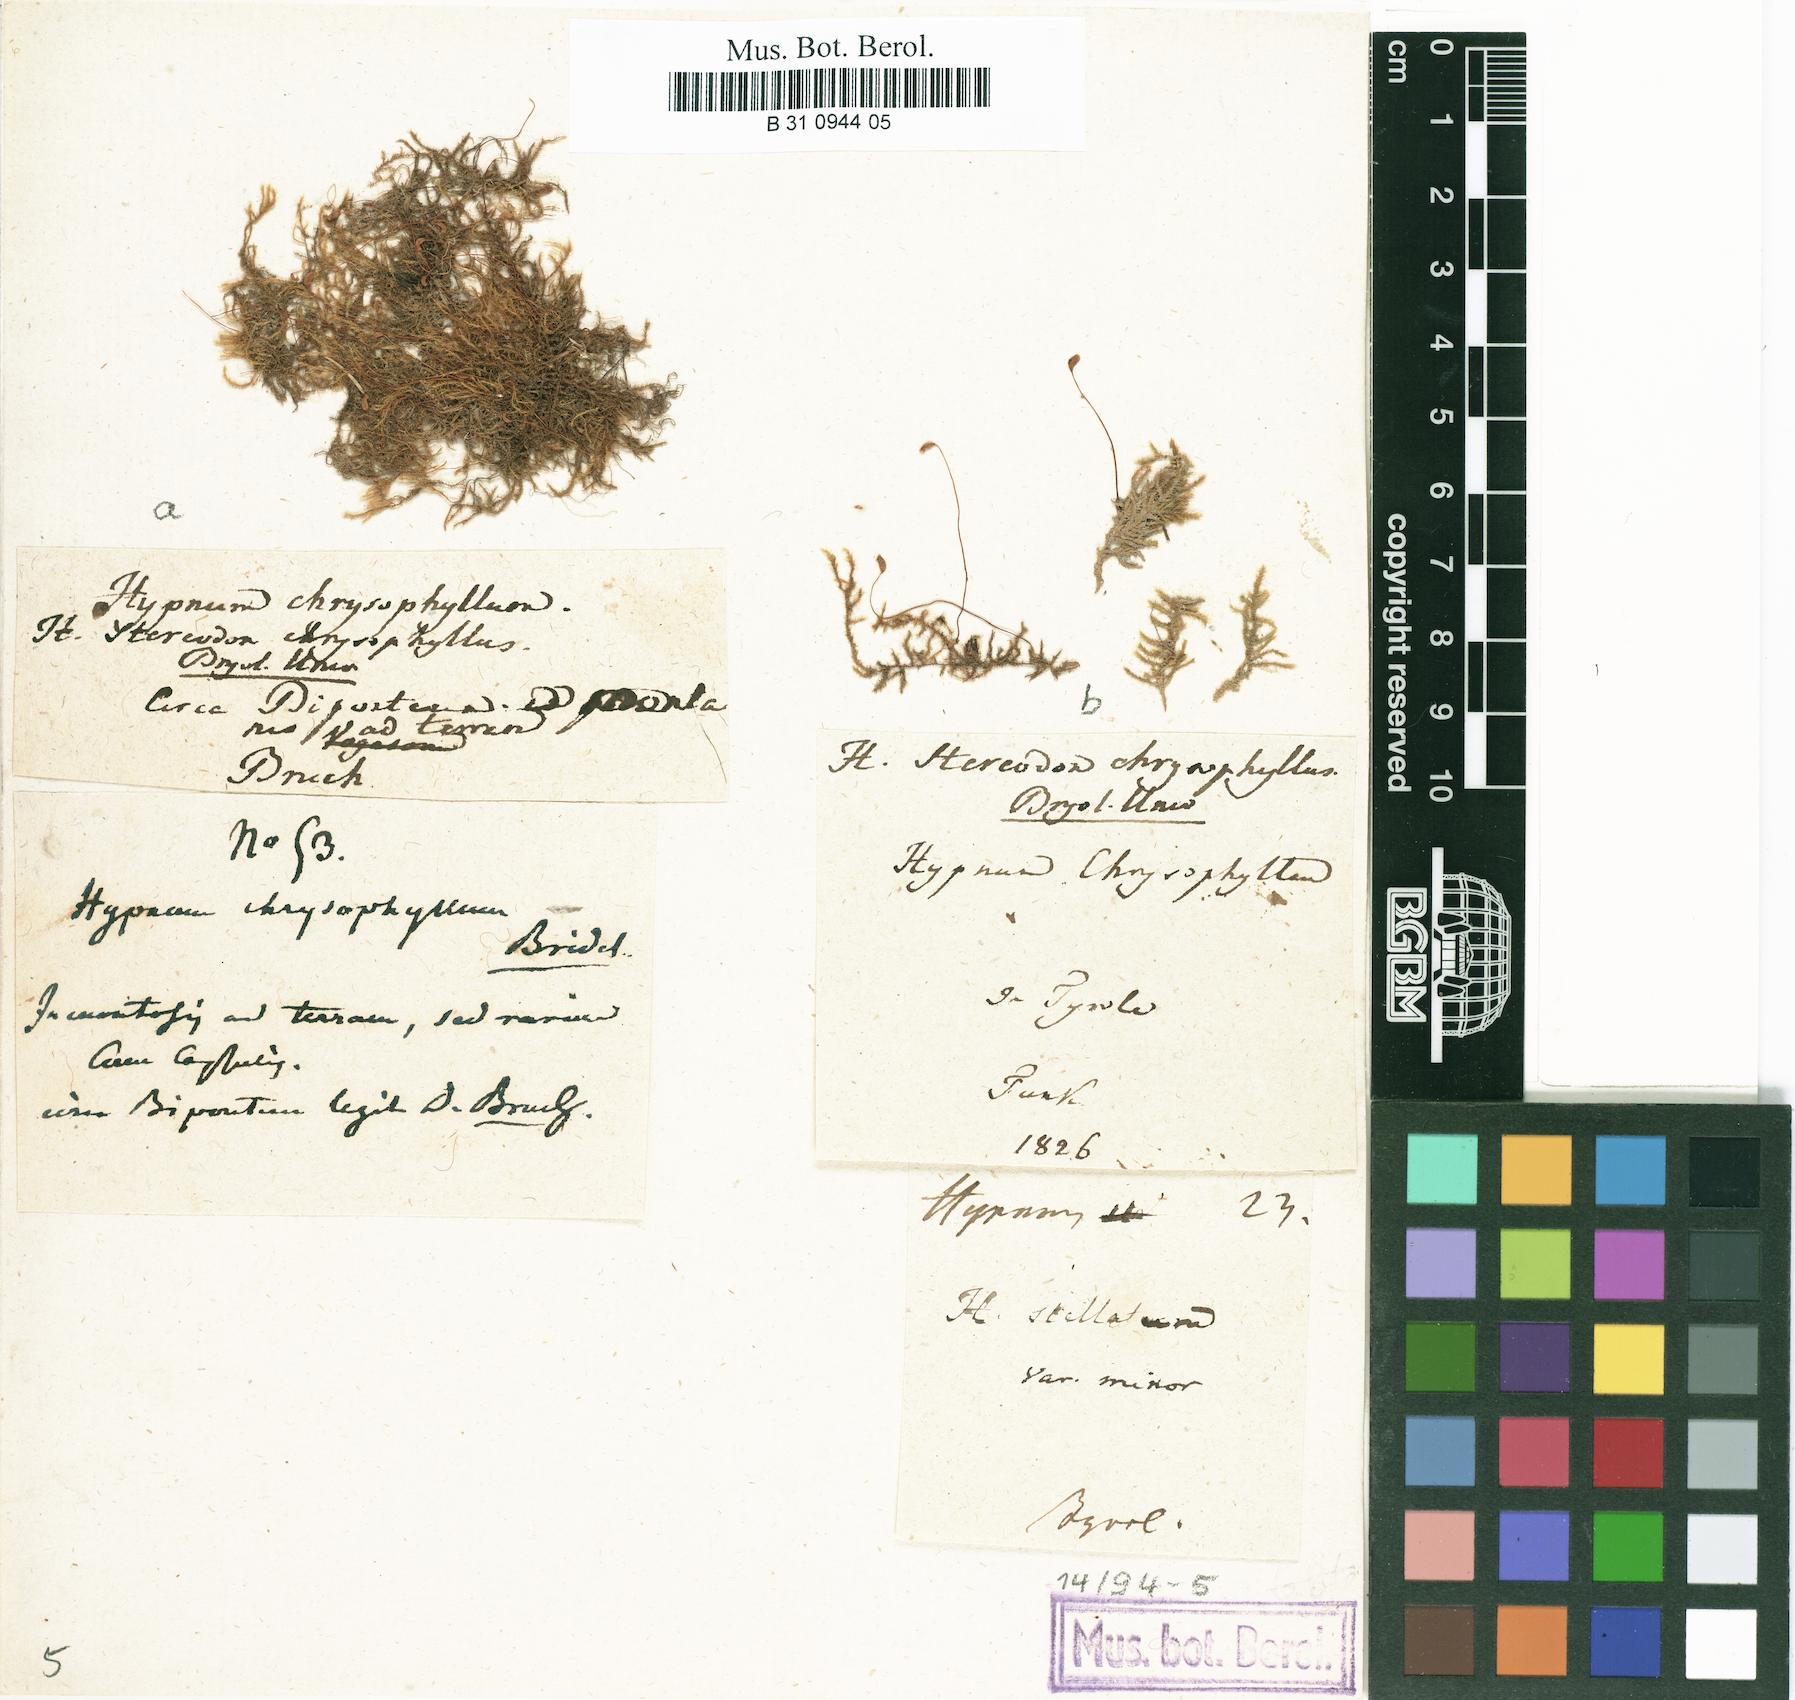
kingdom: Plantae
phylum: Bryophyta
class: Bryopsida
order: Hypnales
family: Amblystegiaceae
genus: Campylium
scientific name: Campylium chrysophyllum
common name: Goldenleaf campylium moss
